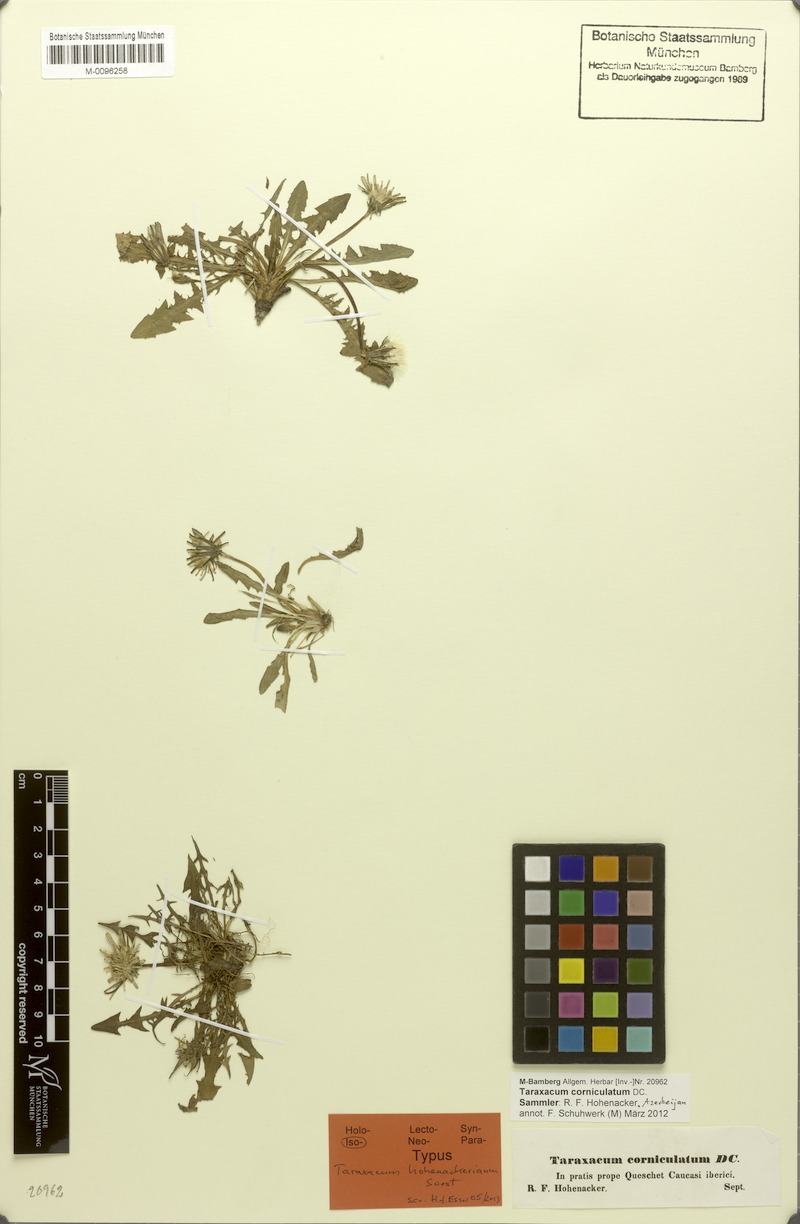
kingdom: Plantae
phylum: Tracheophyta
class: Magnoliopsida
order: Asterales
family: Asteraceae
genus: Taraxacum
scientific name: Taraxacum stenocephalum
